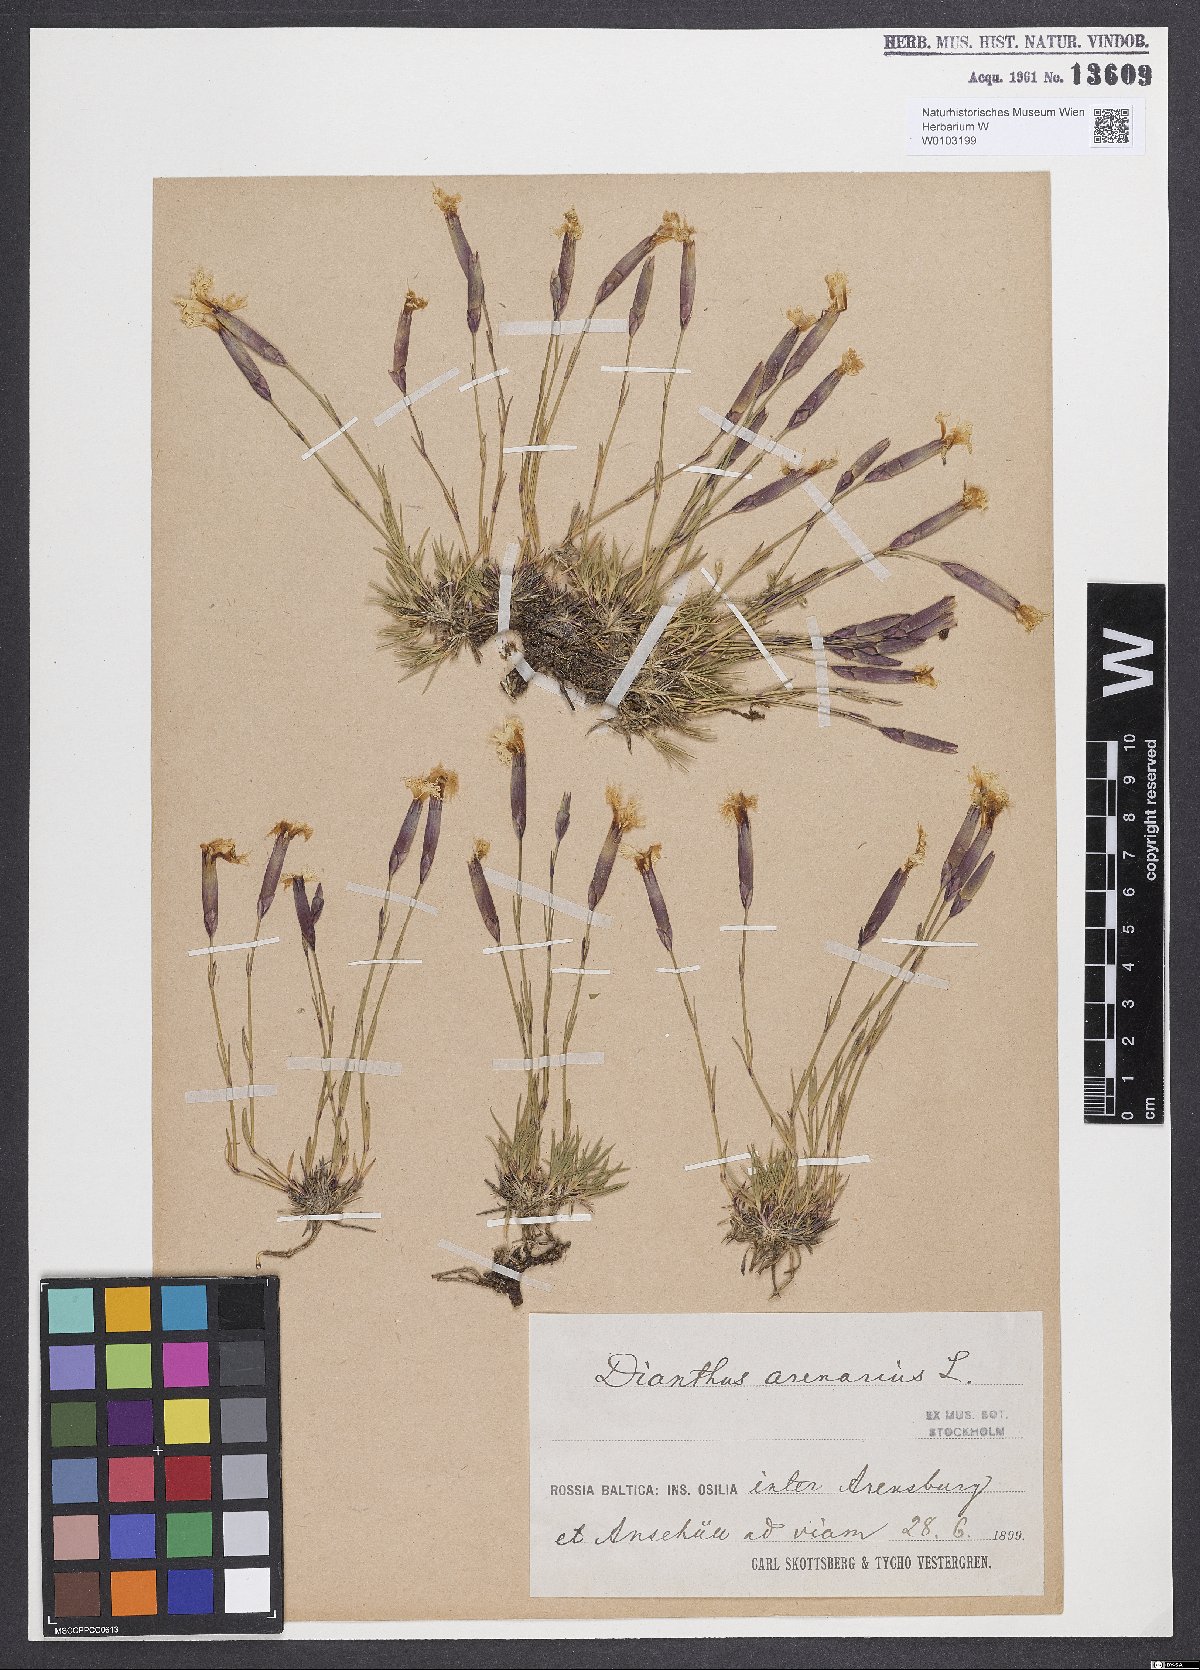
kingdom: Plantae
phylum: Tracheophyta
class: Magnoliopsida
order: Caryophyllales
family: Caryophyllaceae
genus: Dianthus
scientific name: Dianthus arenarius
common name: Stone pink
